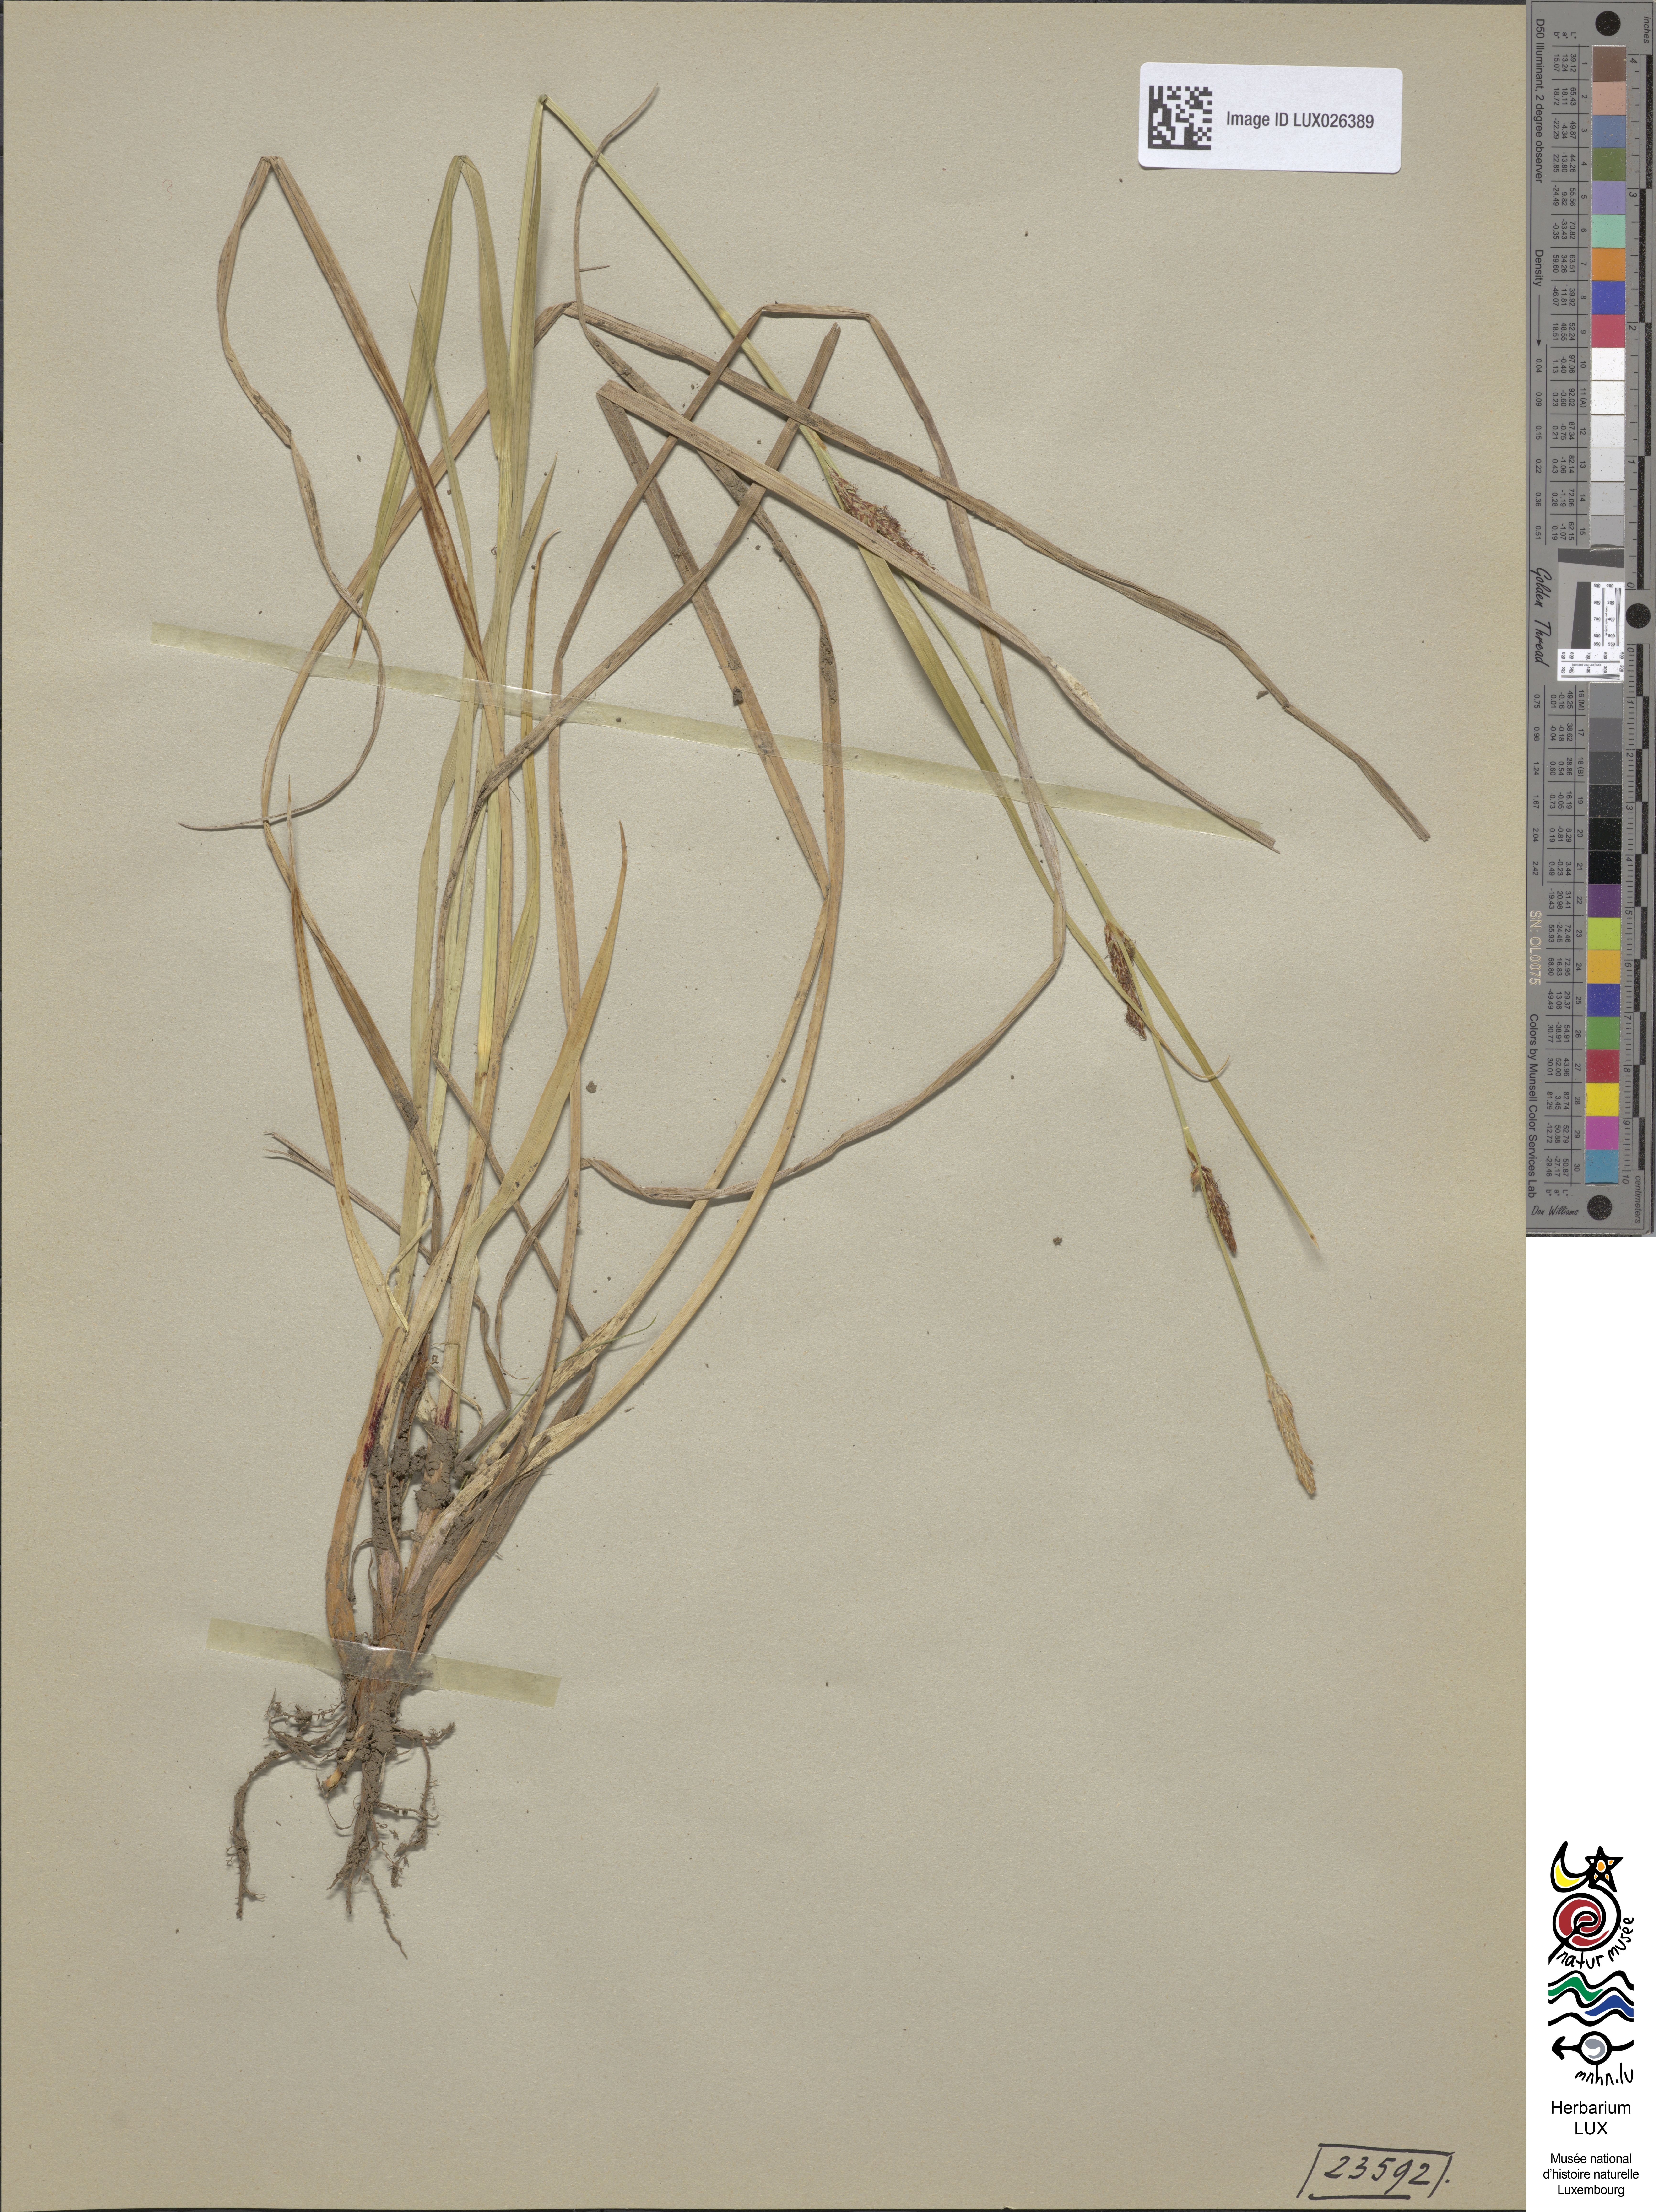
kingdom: Plantae
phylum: Tracheophyta
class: Liliopsida
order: Poales
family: Cyperaceae
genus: Carex
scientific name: Carex distans
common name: Distant sedge
